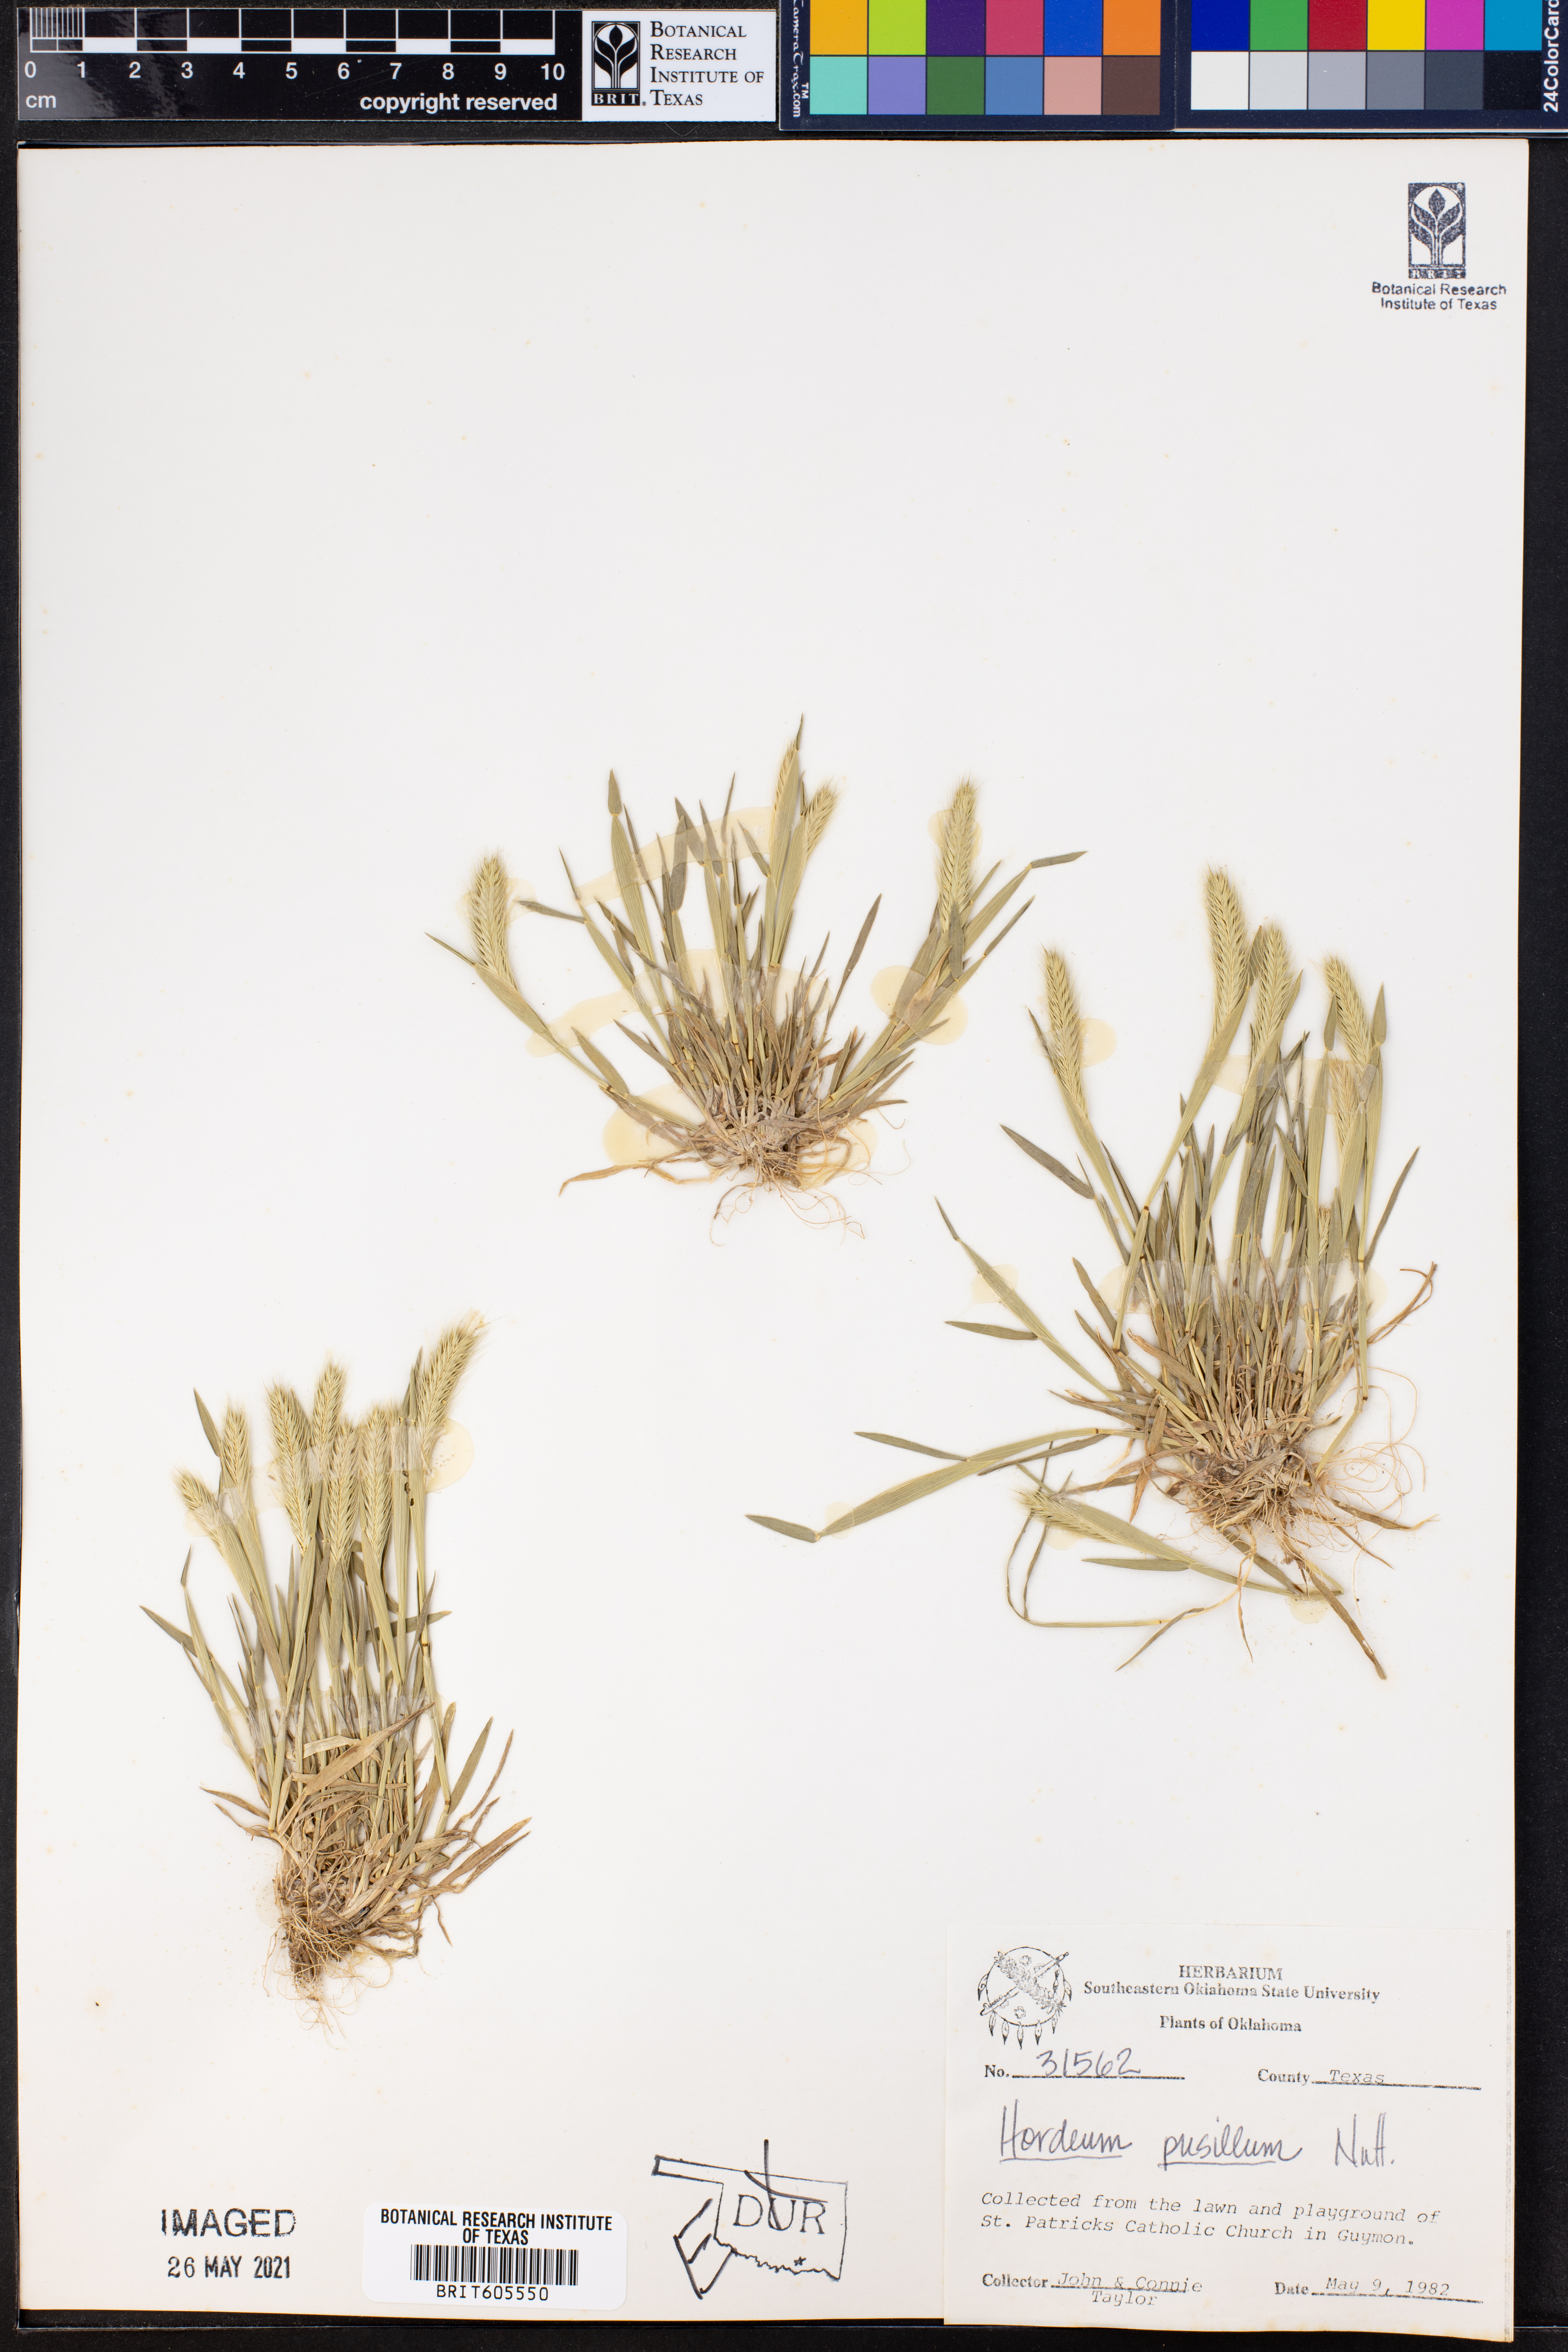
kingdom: Plantae
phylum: Tracheophyta
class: Liliopsida
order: Poales
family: Poaceae
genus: Hordeum
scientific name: Hordeum pusillum
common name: Little barley
